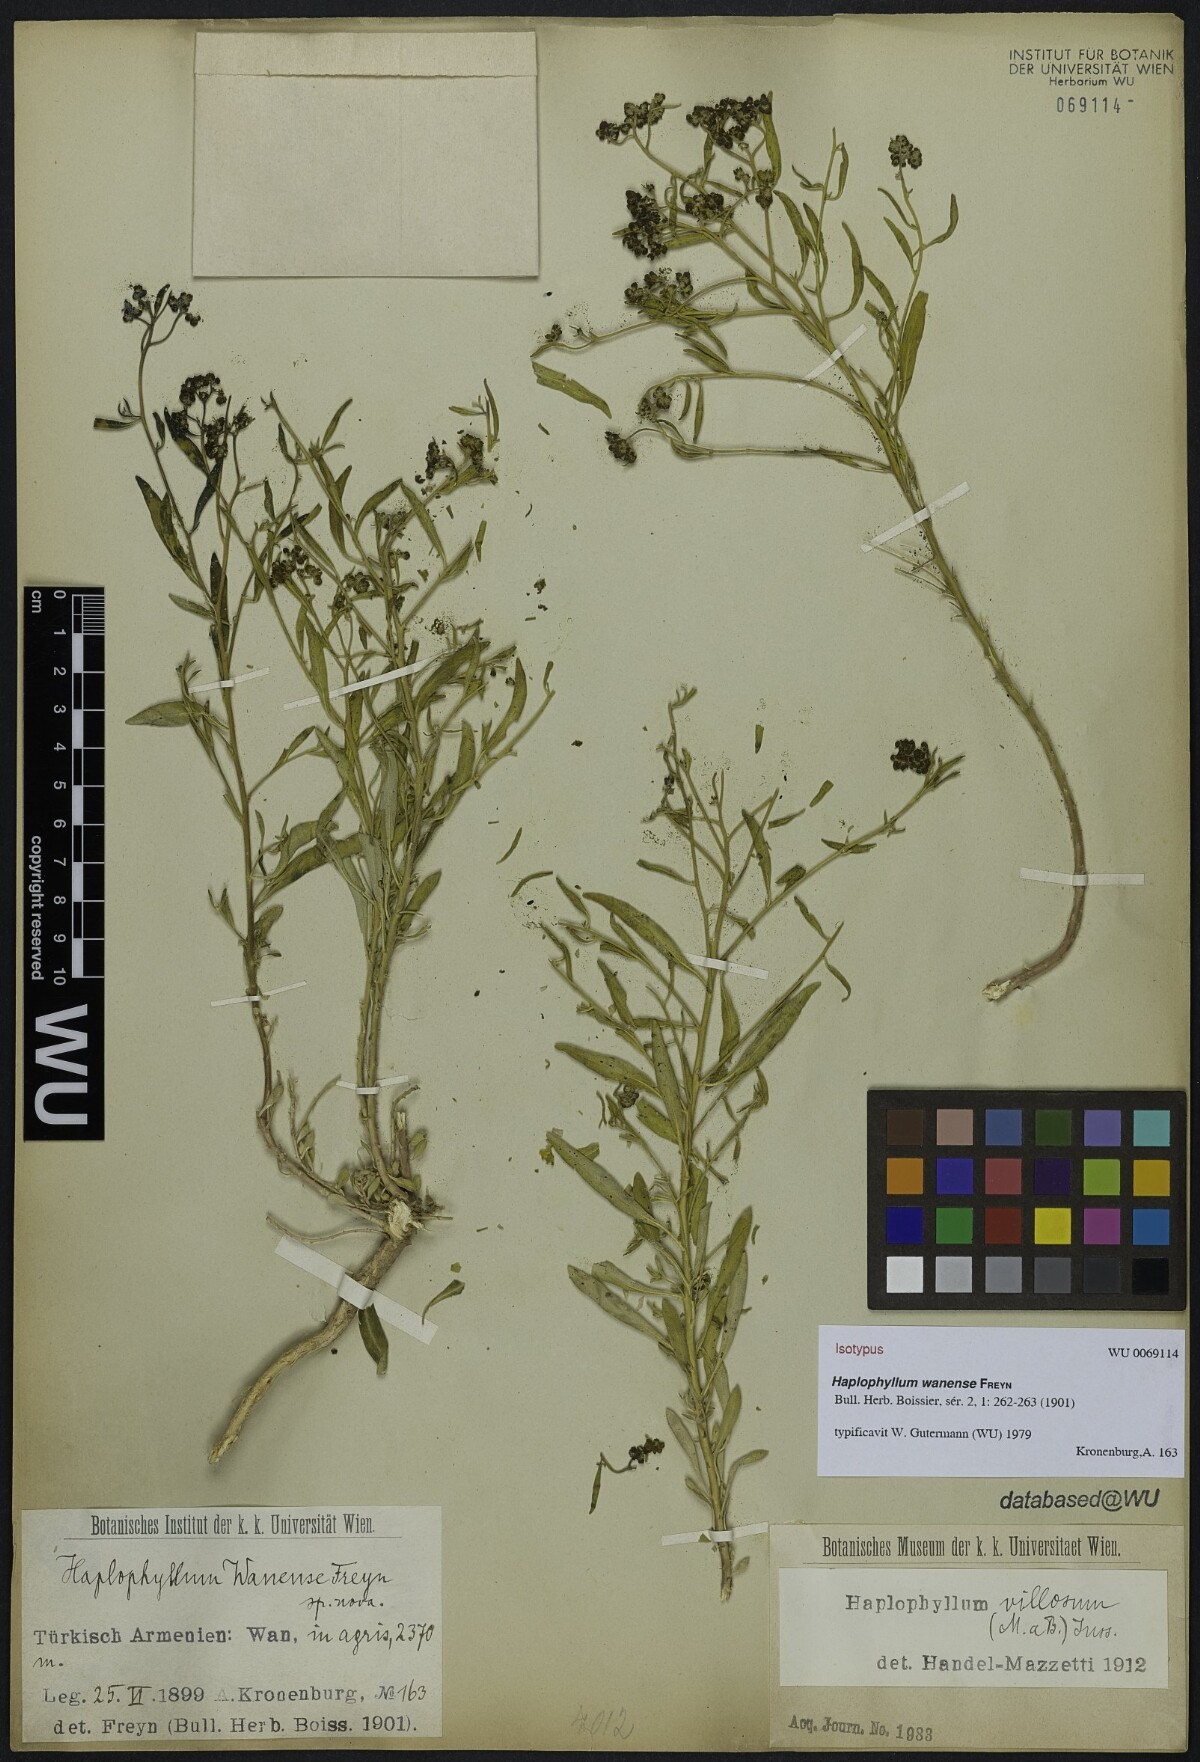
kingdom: Plantae
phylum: Tracheophyta
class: Magnoliopsida
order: Sapindales
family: Rutaceae
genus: Haplophyllum
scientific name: Haplophyllum villosum
